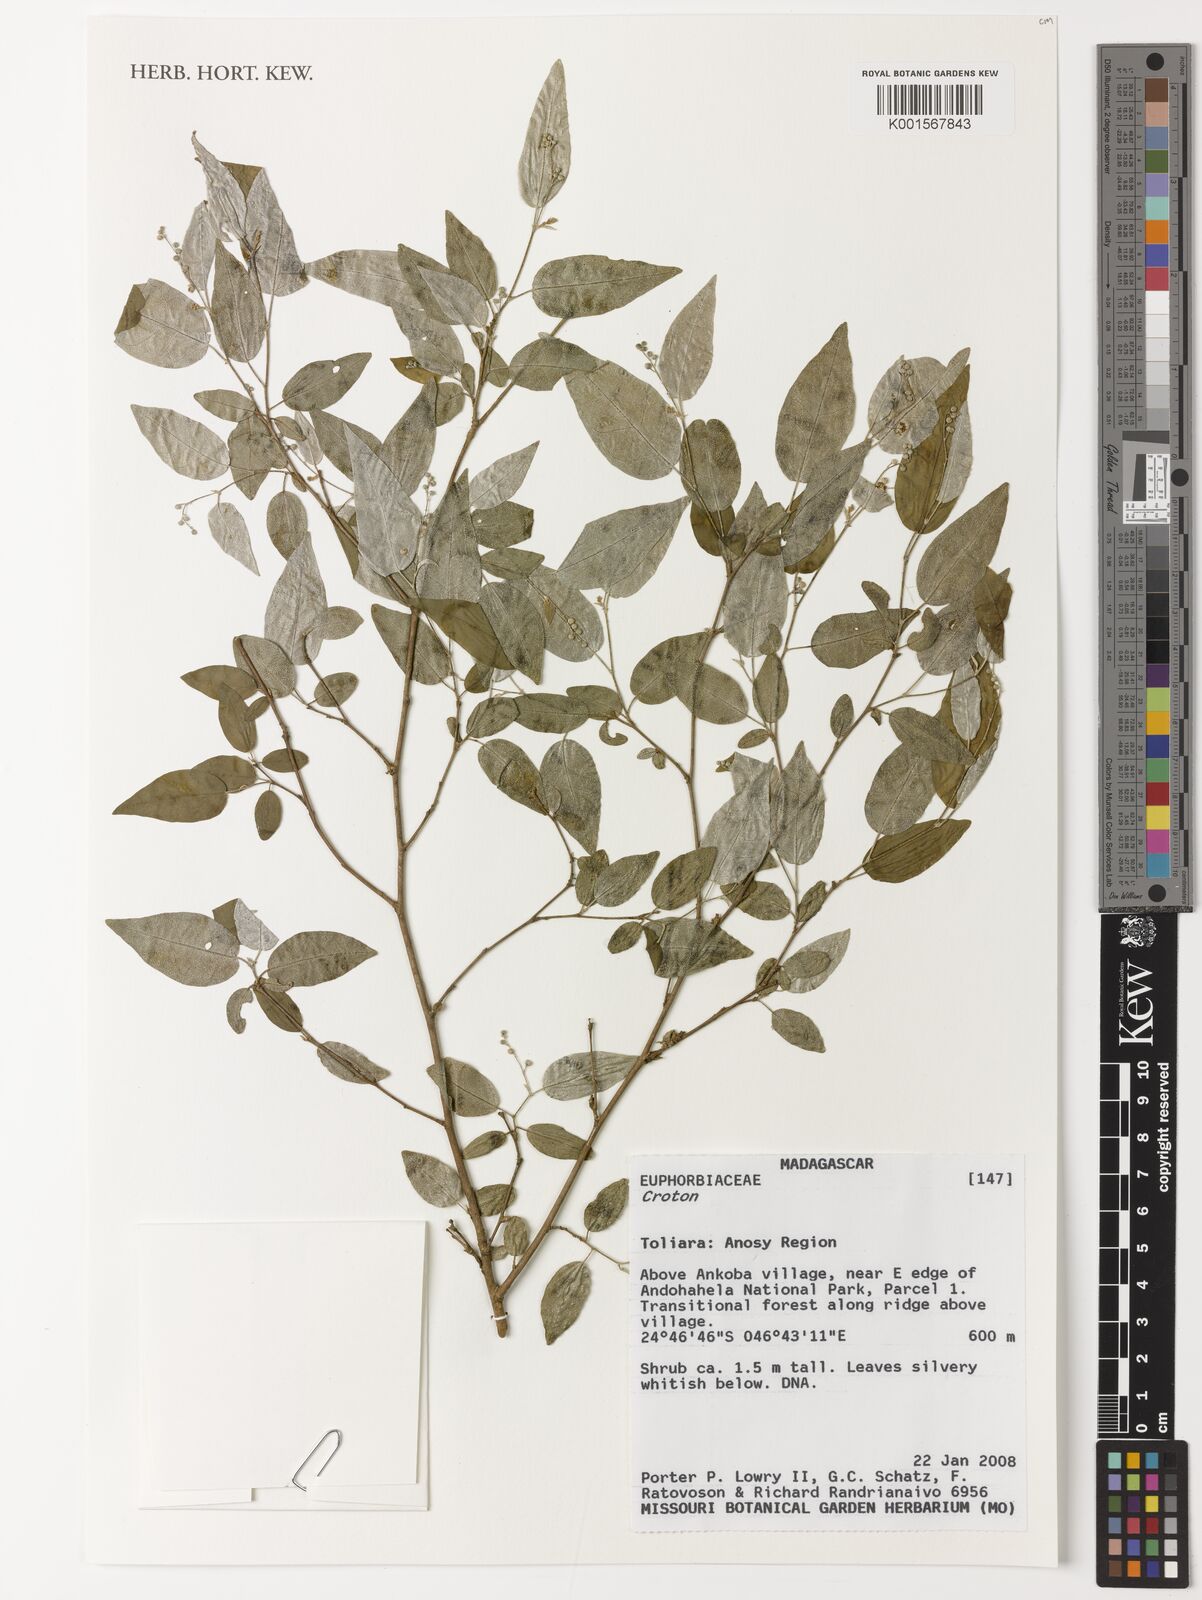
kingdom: Plantae
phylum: Tracheophyta
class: Magnoliopsida
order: Malpighiales
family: Euphorbiaceae
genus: Croton
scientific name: Croton
